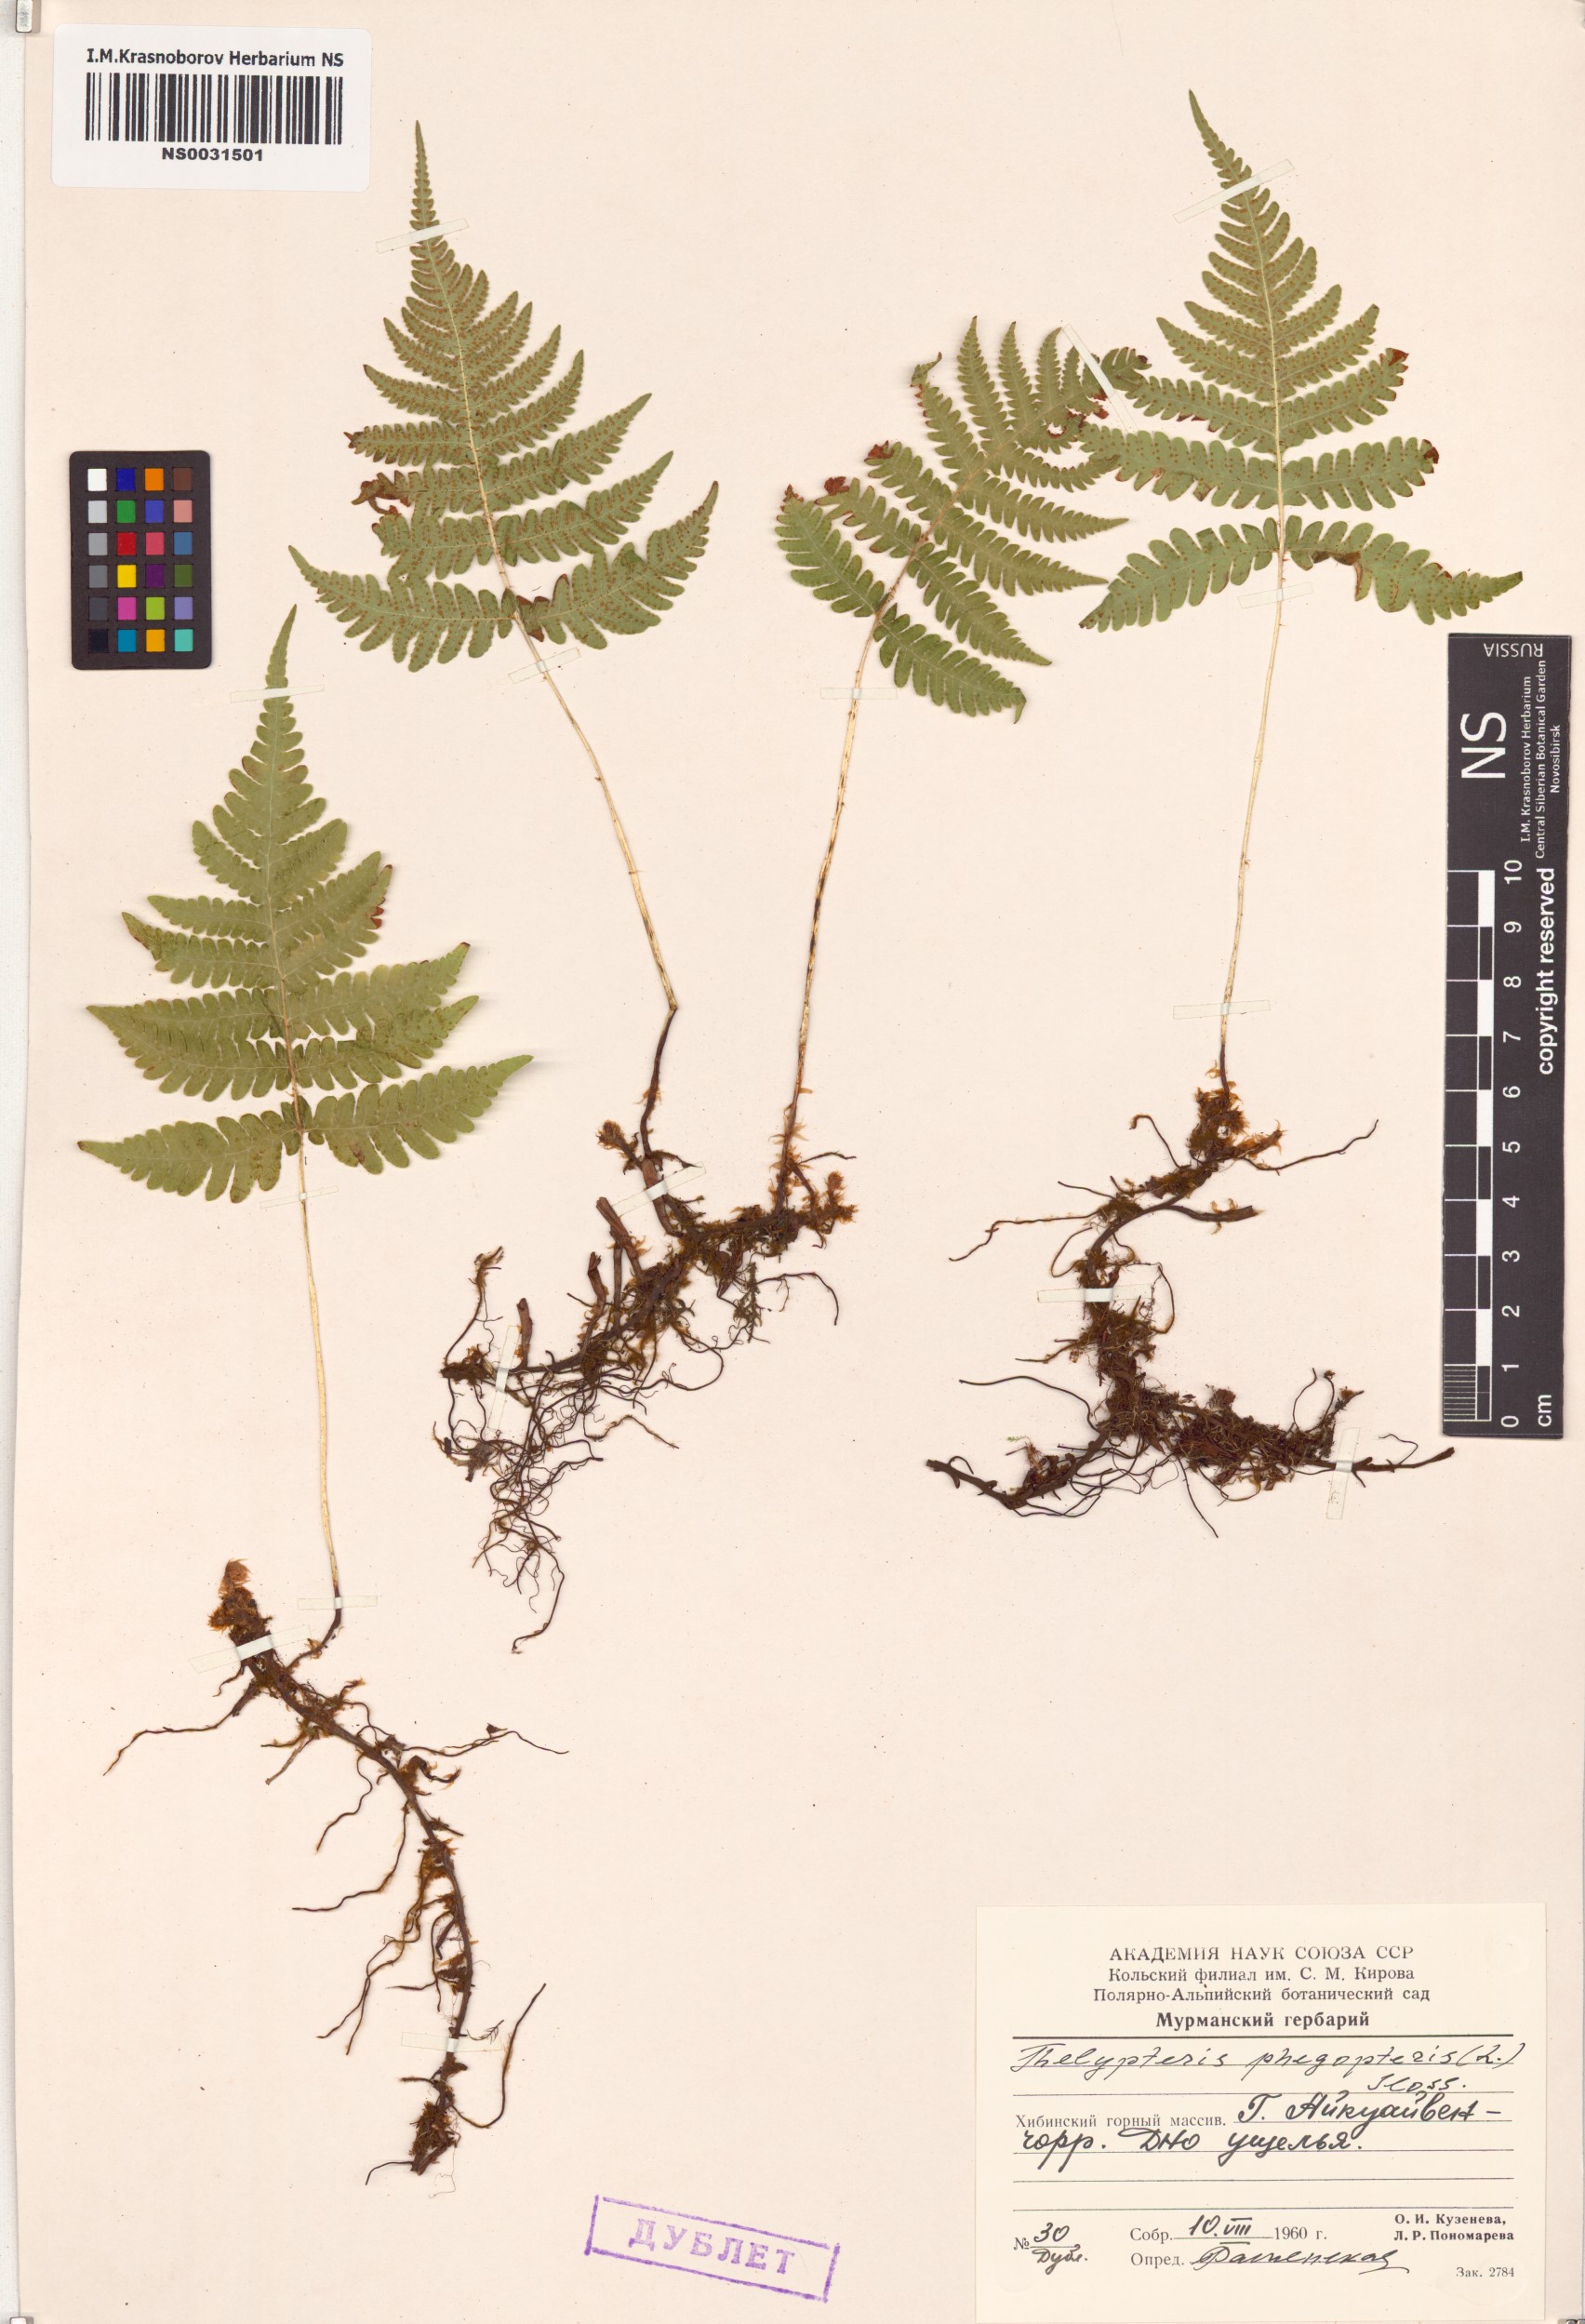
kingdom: Plantae
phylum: Tracheophyta
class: Polypodiopsida
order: Polypodiales
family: Thelypteridaceae
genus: Phegopteris
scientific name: Phegopteris connectilis
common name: Beech fern
